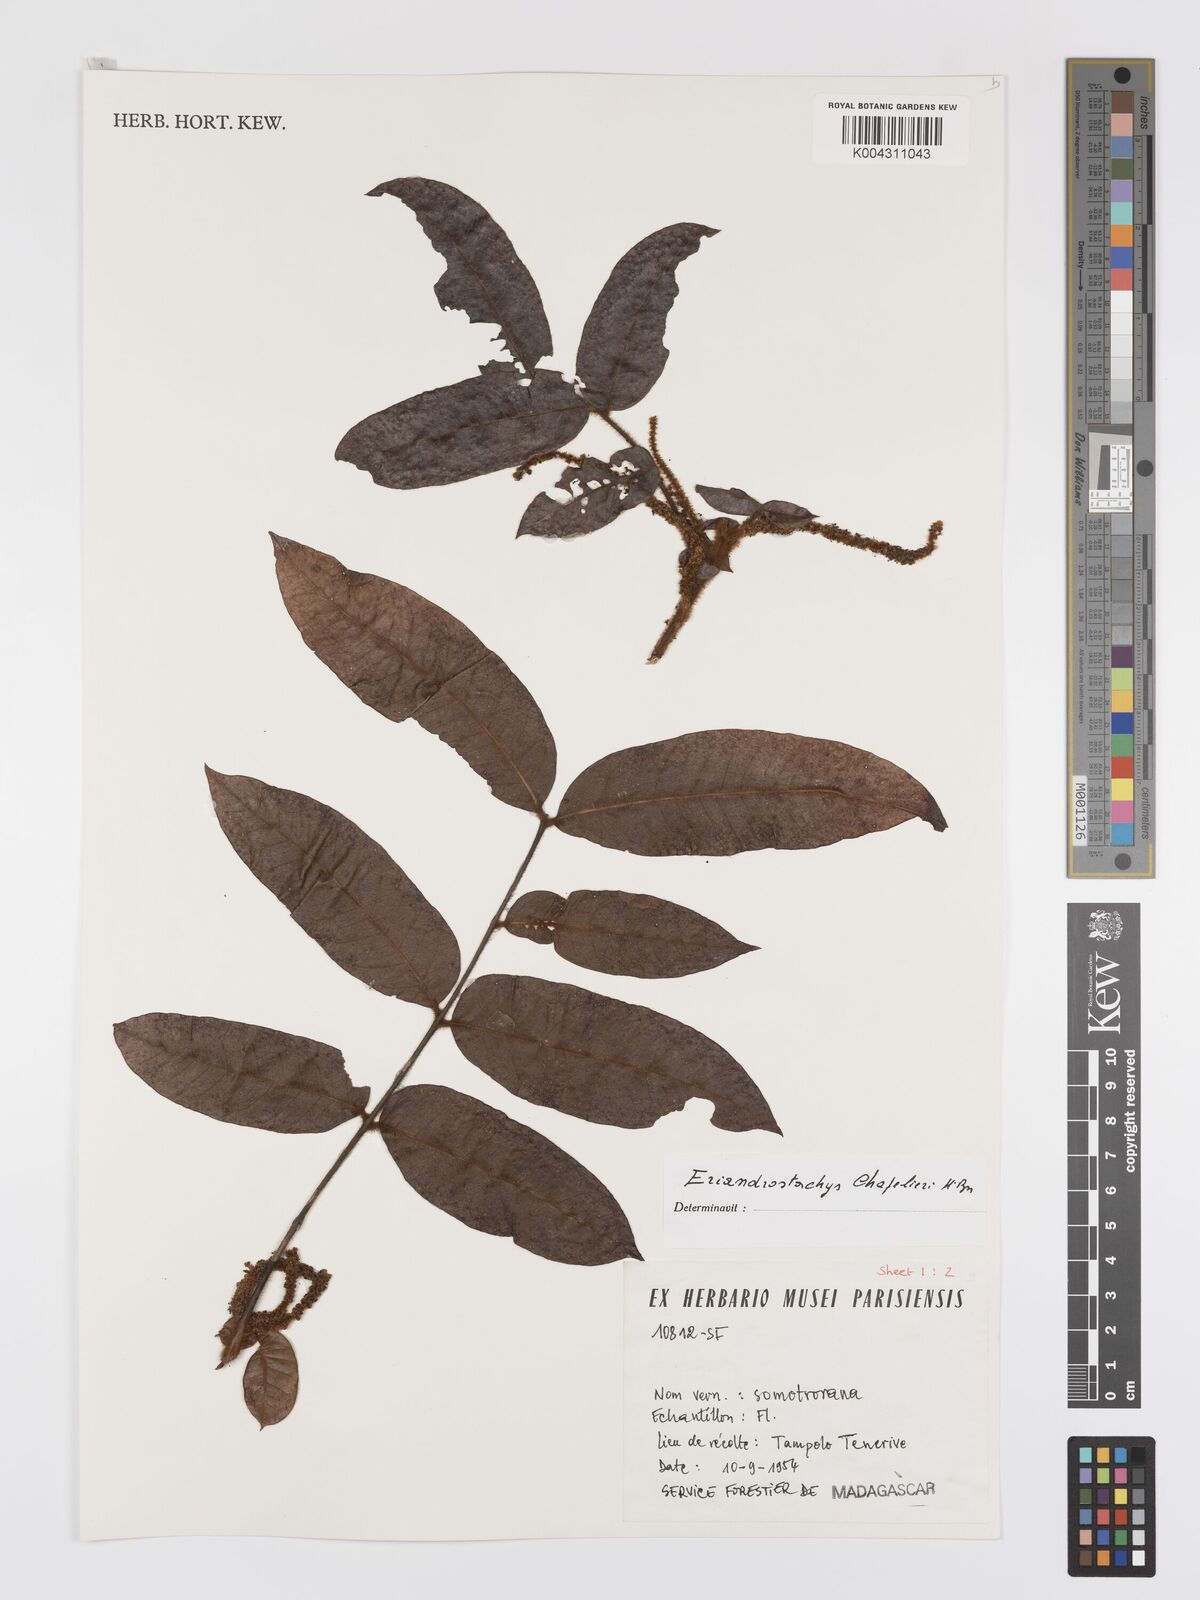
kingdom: Plantae
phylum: Tracheophyta
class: Magnoliopsida
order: Sapindales
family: Sapindaceae
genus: Macphersonia
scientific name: Macphersonia chapelieri
